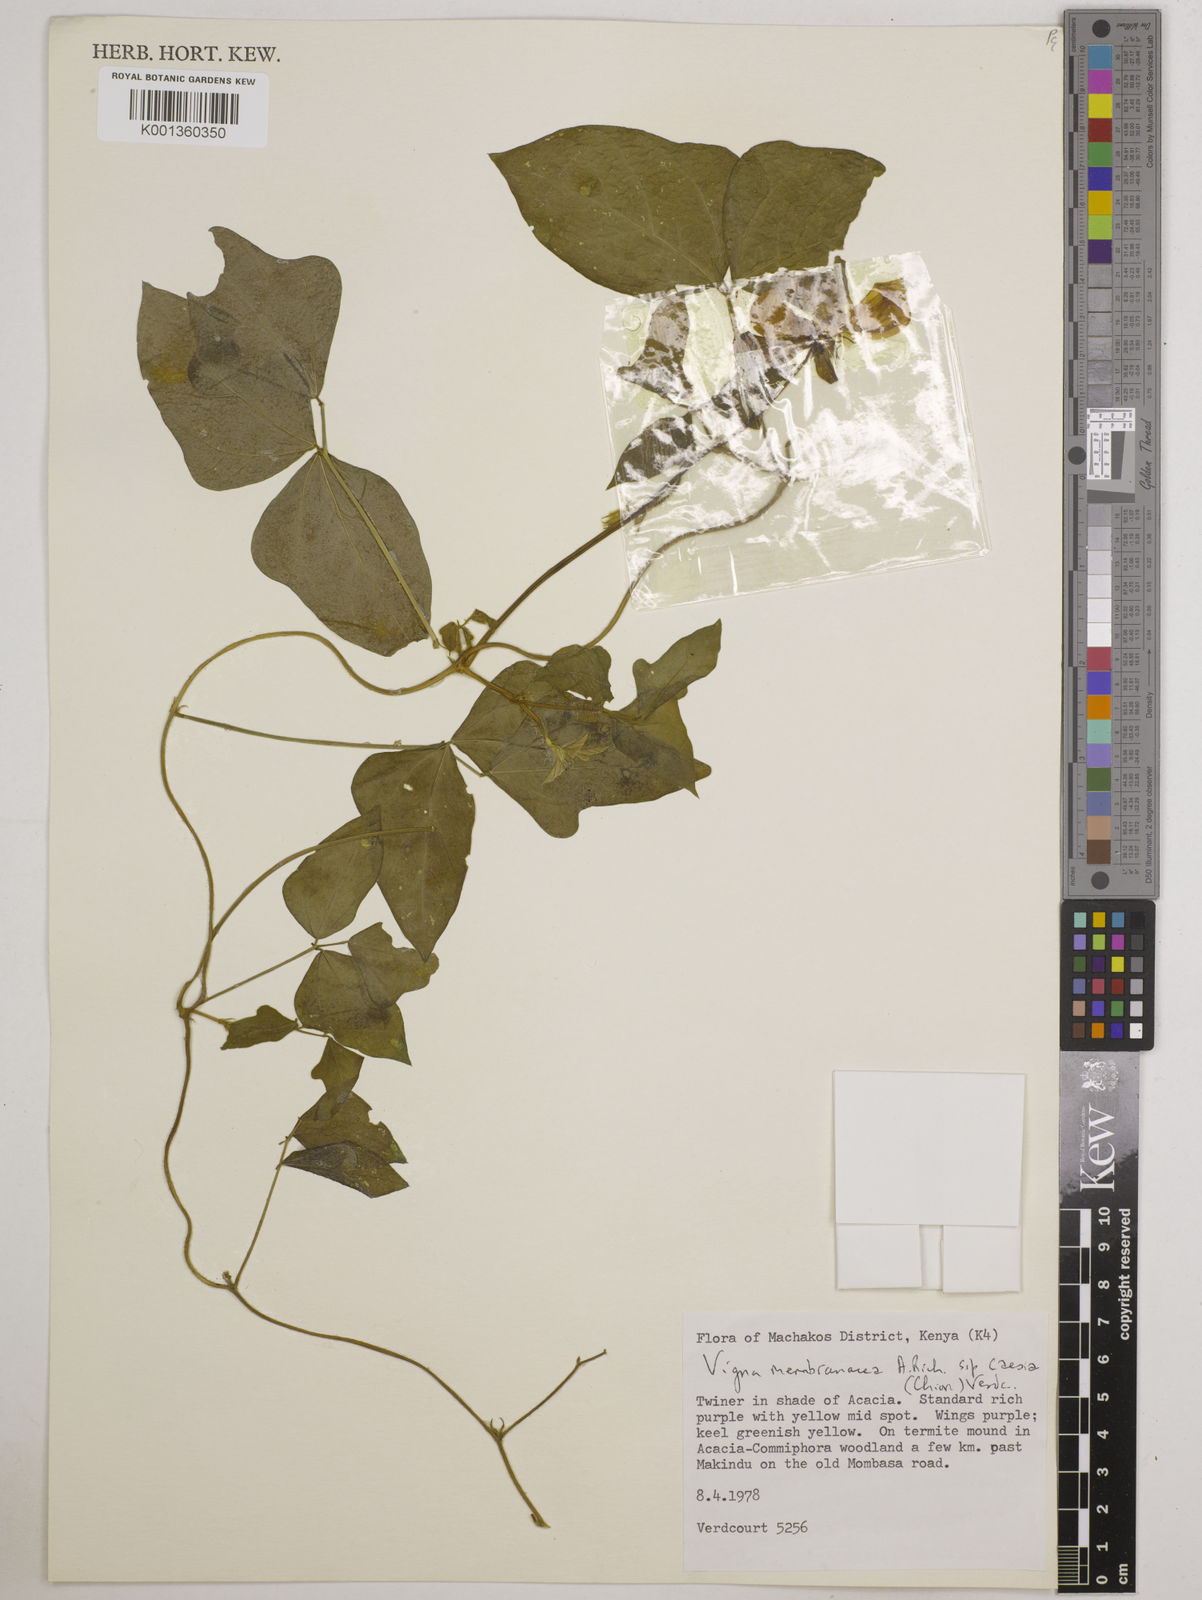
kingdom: Plantae
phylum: Tracheophyta
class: Magnoliopsida
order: Fabales
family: Fabaceae
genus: Vigna
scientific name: Vigna
